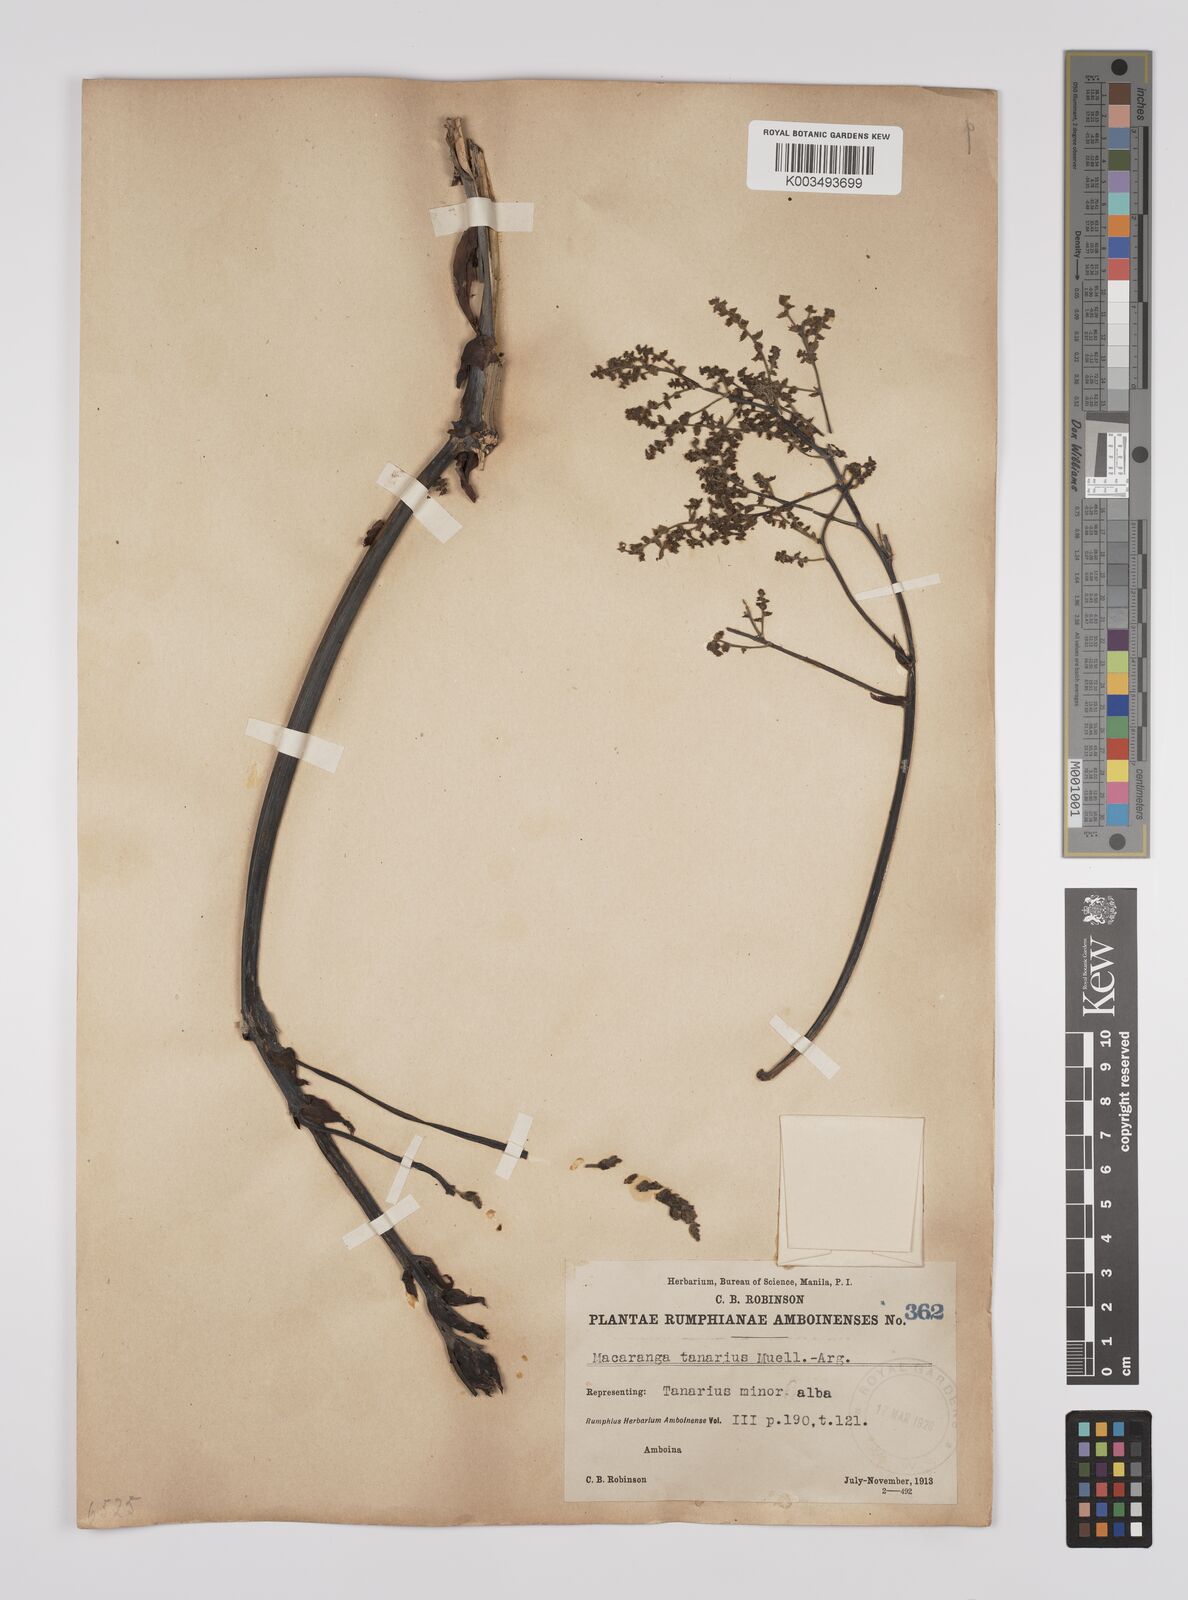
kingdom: Plantae
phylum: Tracheophyta
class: Magnoliopsida
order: Malpighiales
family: Euphorbiaceae
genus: Macaranga
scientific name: Macaranga tanarius
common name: Parasol leaf tree
